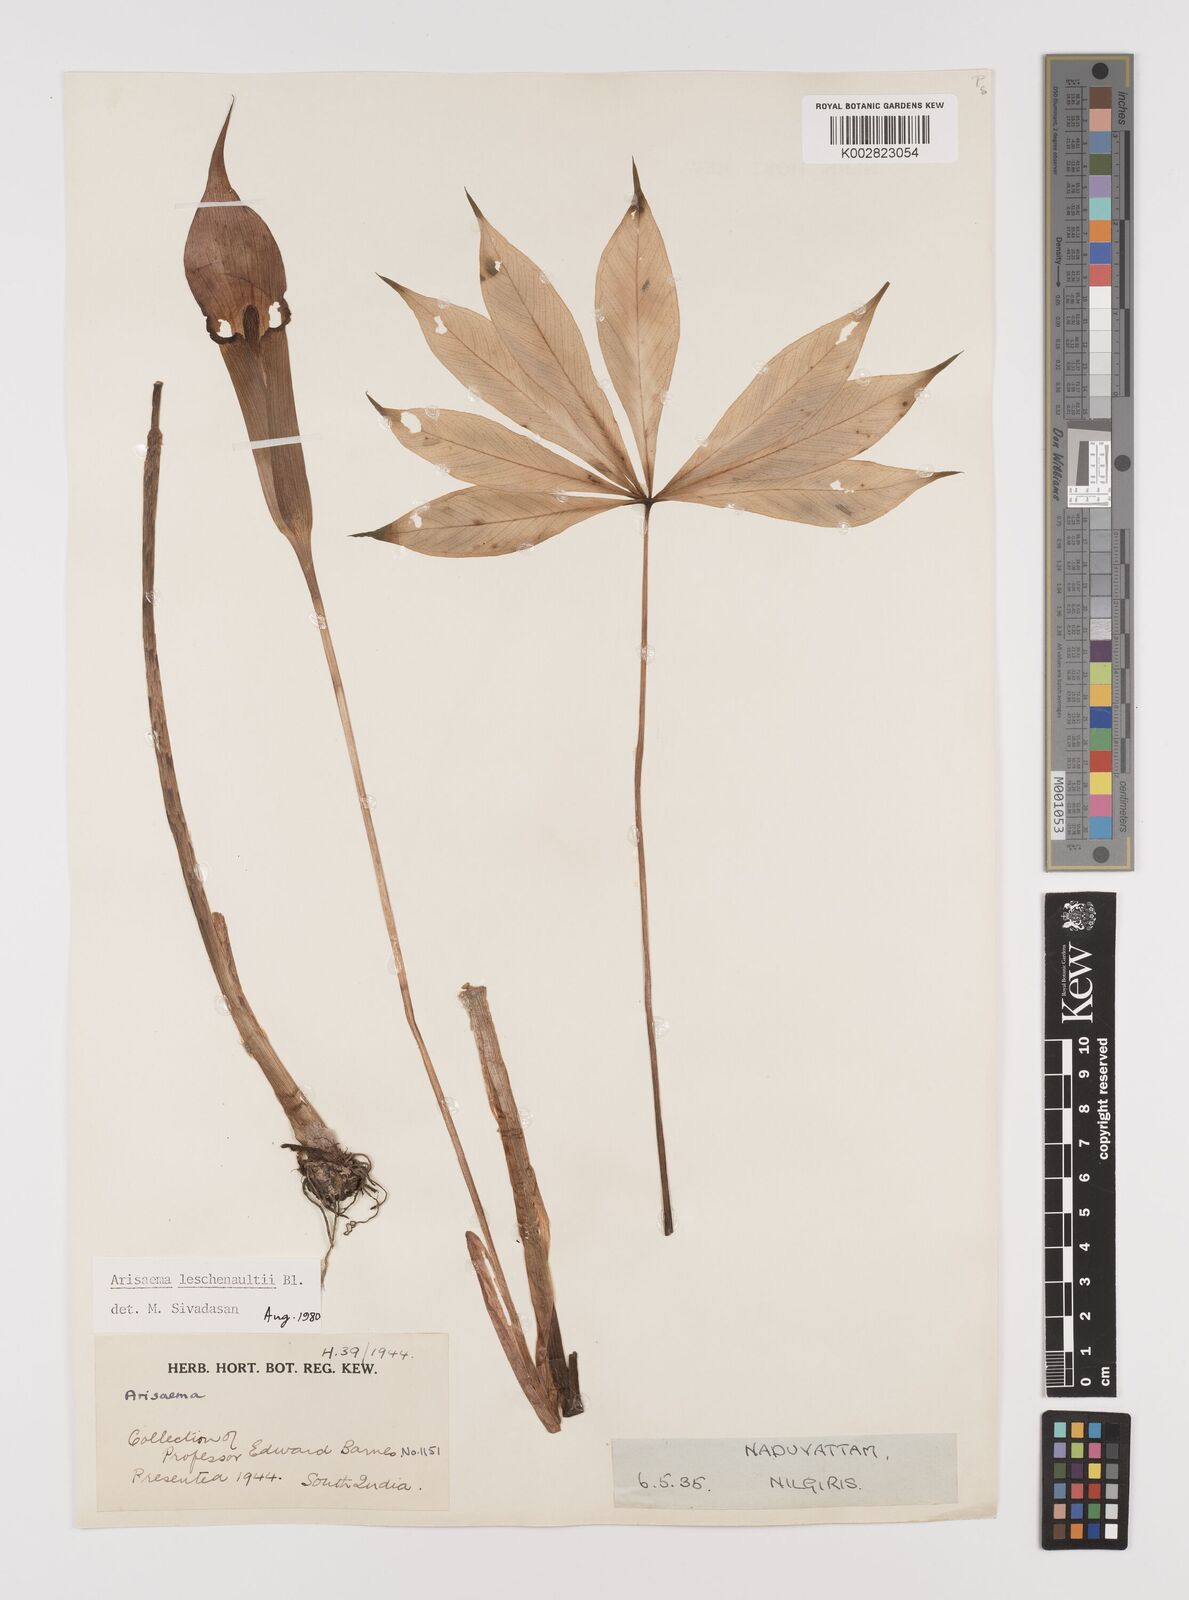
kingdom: Plantae
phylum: Tracheophyta
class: Liliopsida
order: Alismatales
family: Araceae
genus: Arisaema
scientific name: Arisaema leschenaultii
